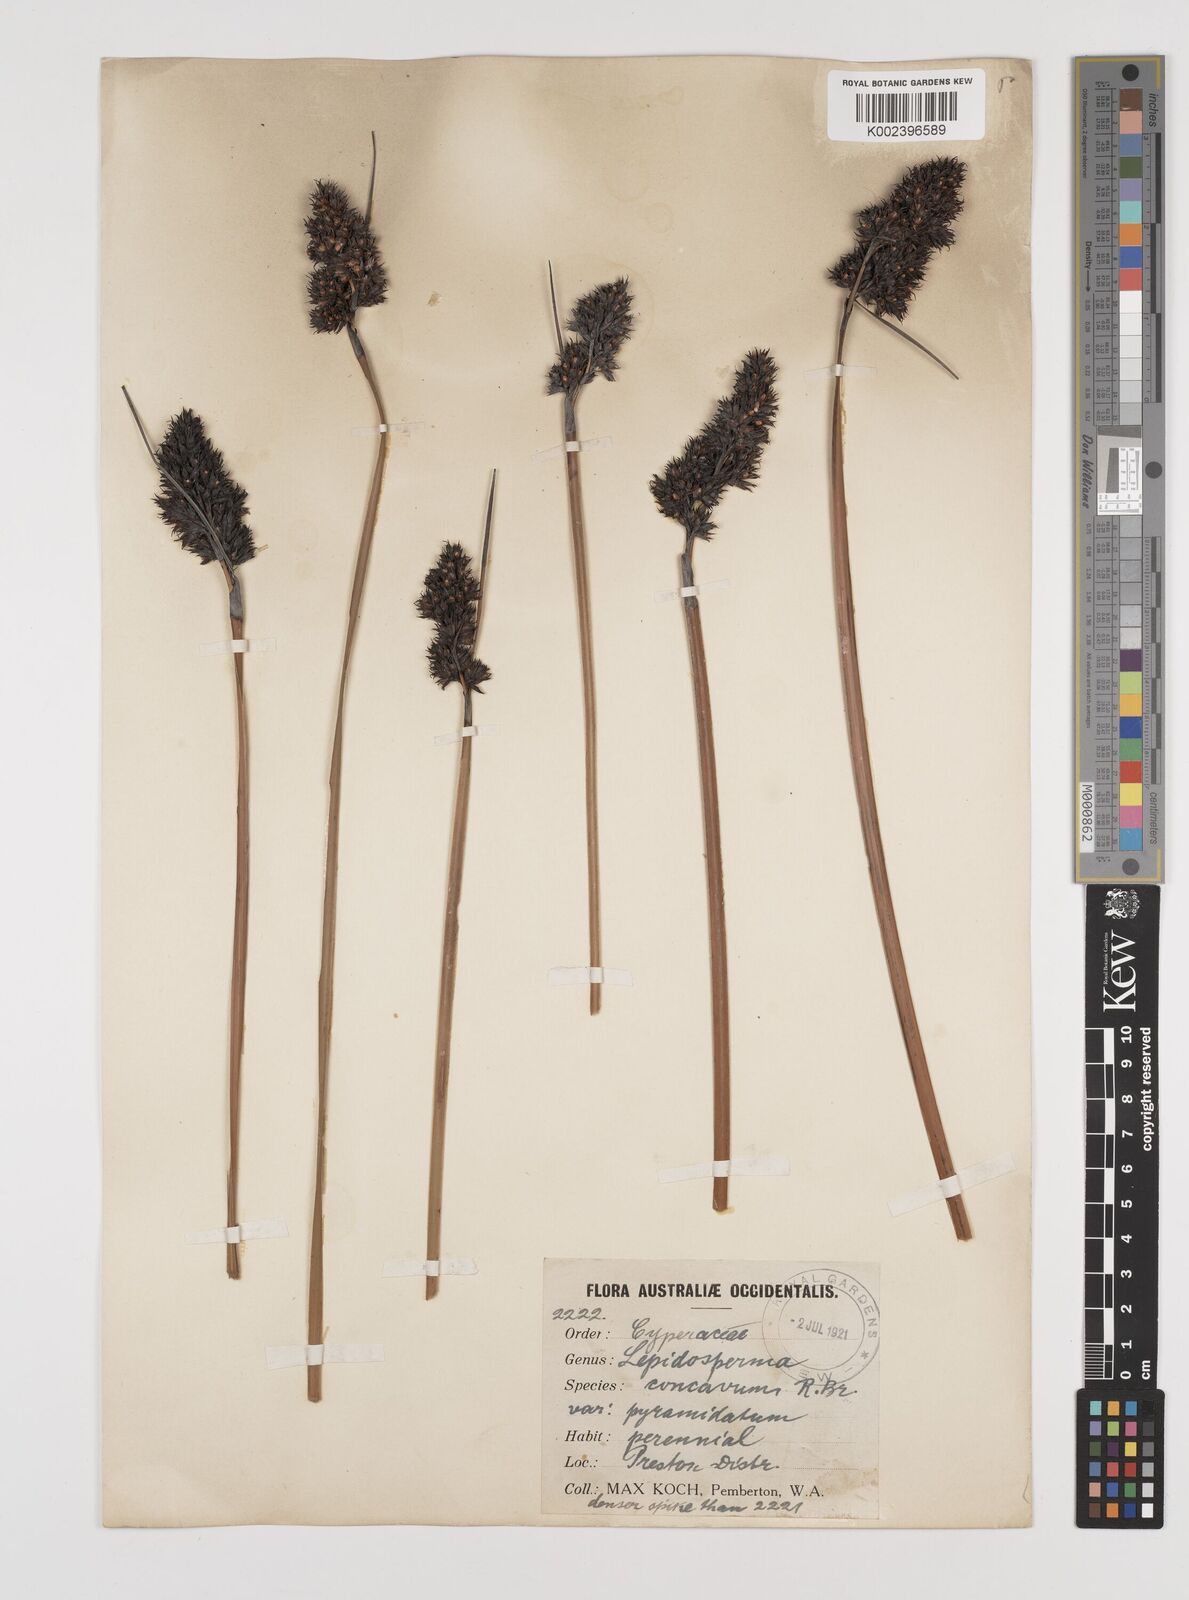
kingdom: Plantae
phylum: Tracheophyta
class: Liliopsida
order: Poales
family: Cyperaceae
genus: Lepidosperma
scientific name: Lepidosperma sieberi
